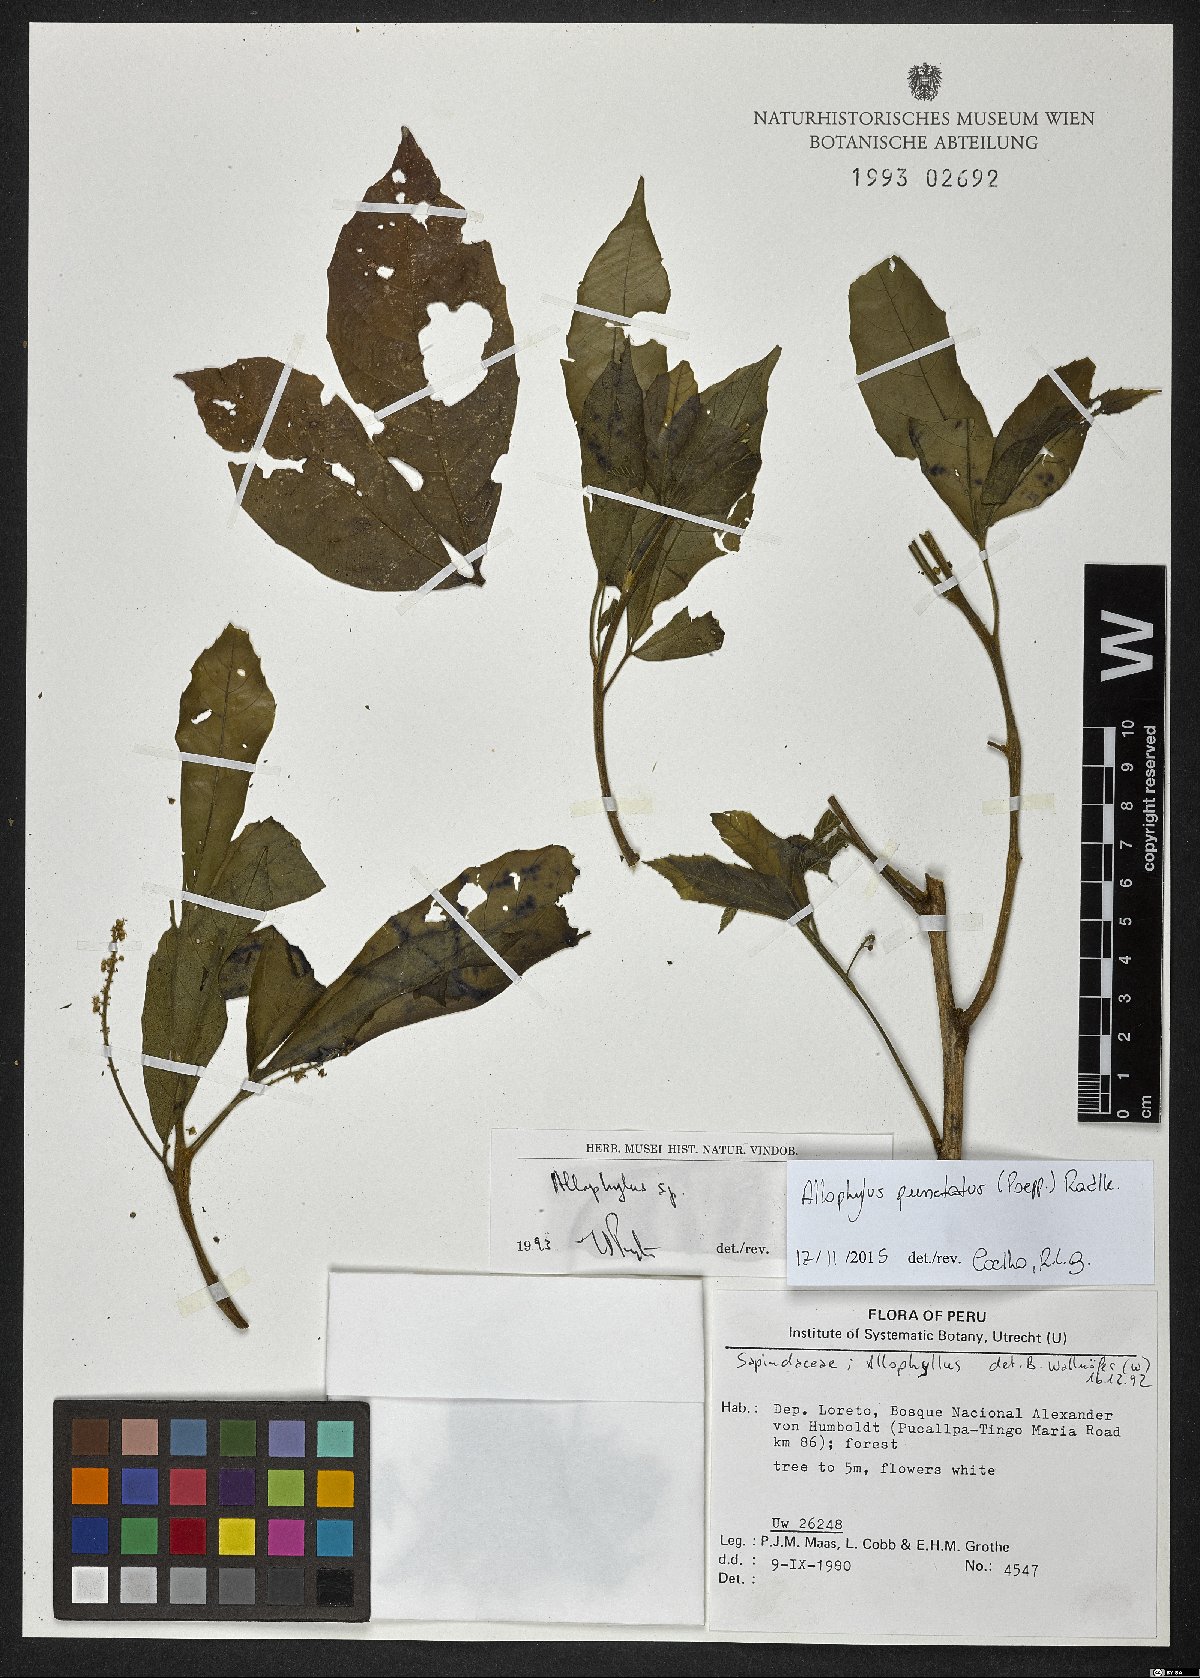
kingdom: Plantae
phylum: Tracheophyta
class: Magnoliopsida
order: Sapindales
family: Sapindaceae
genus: Allophylus
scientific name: Allophylus punctatus
